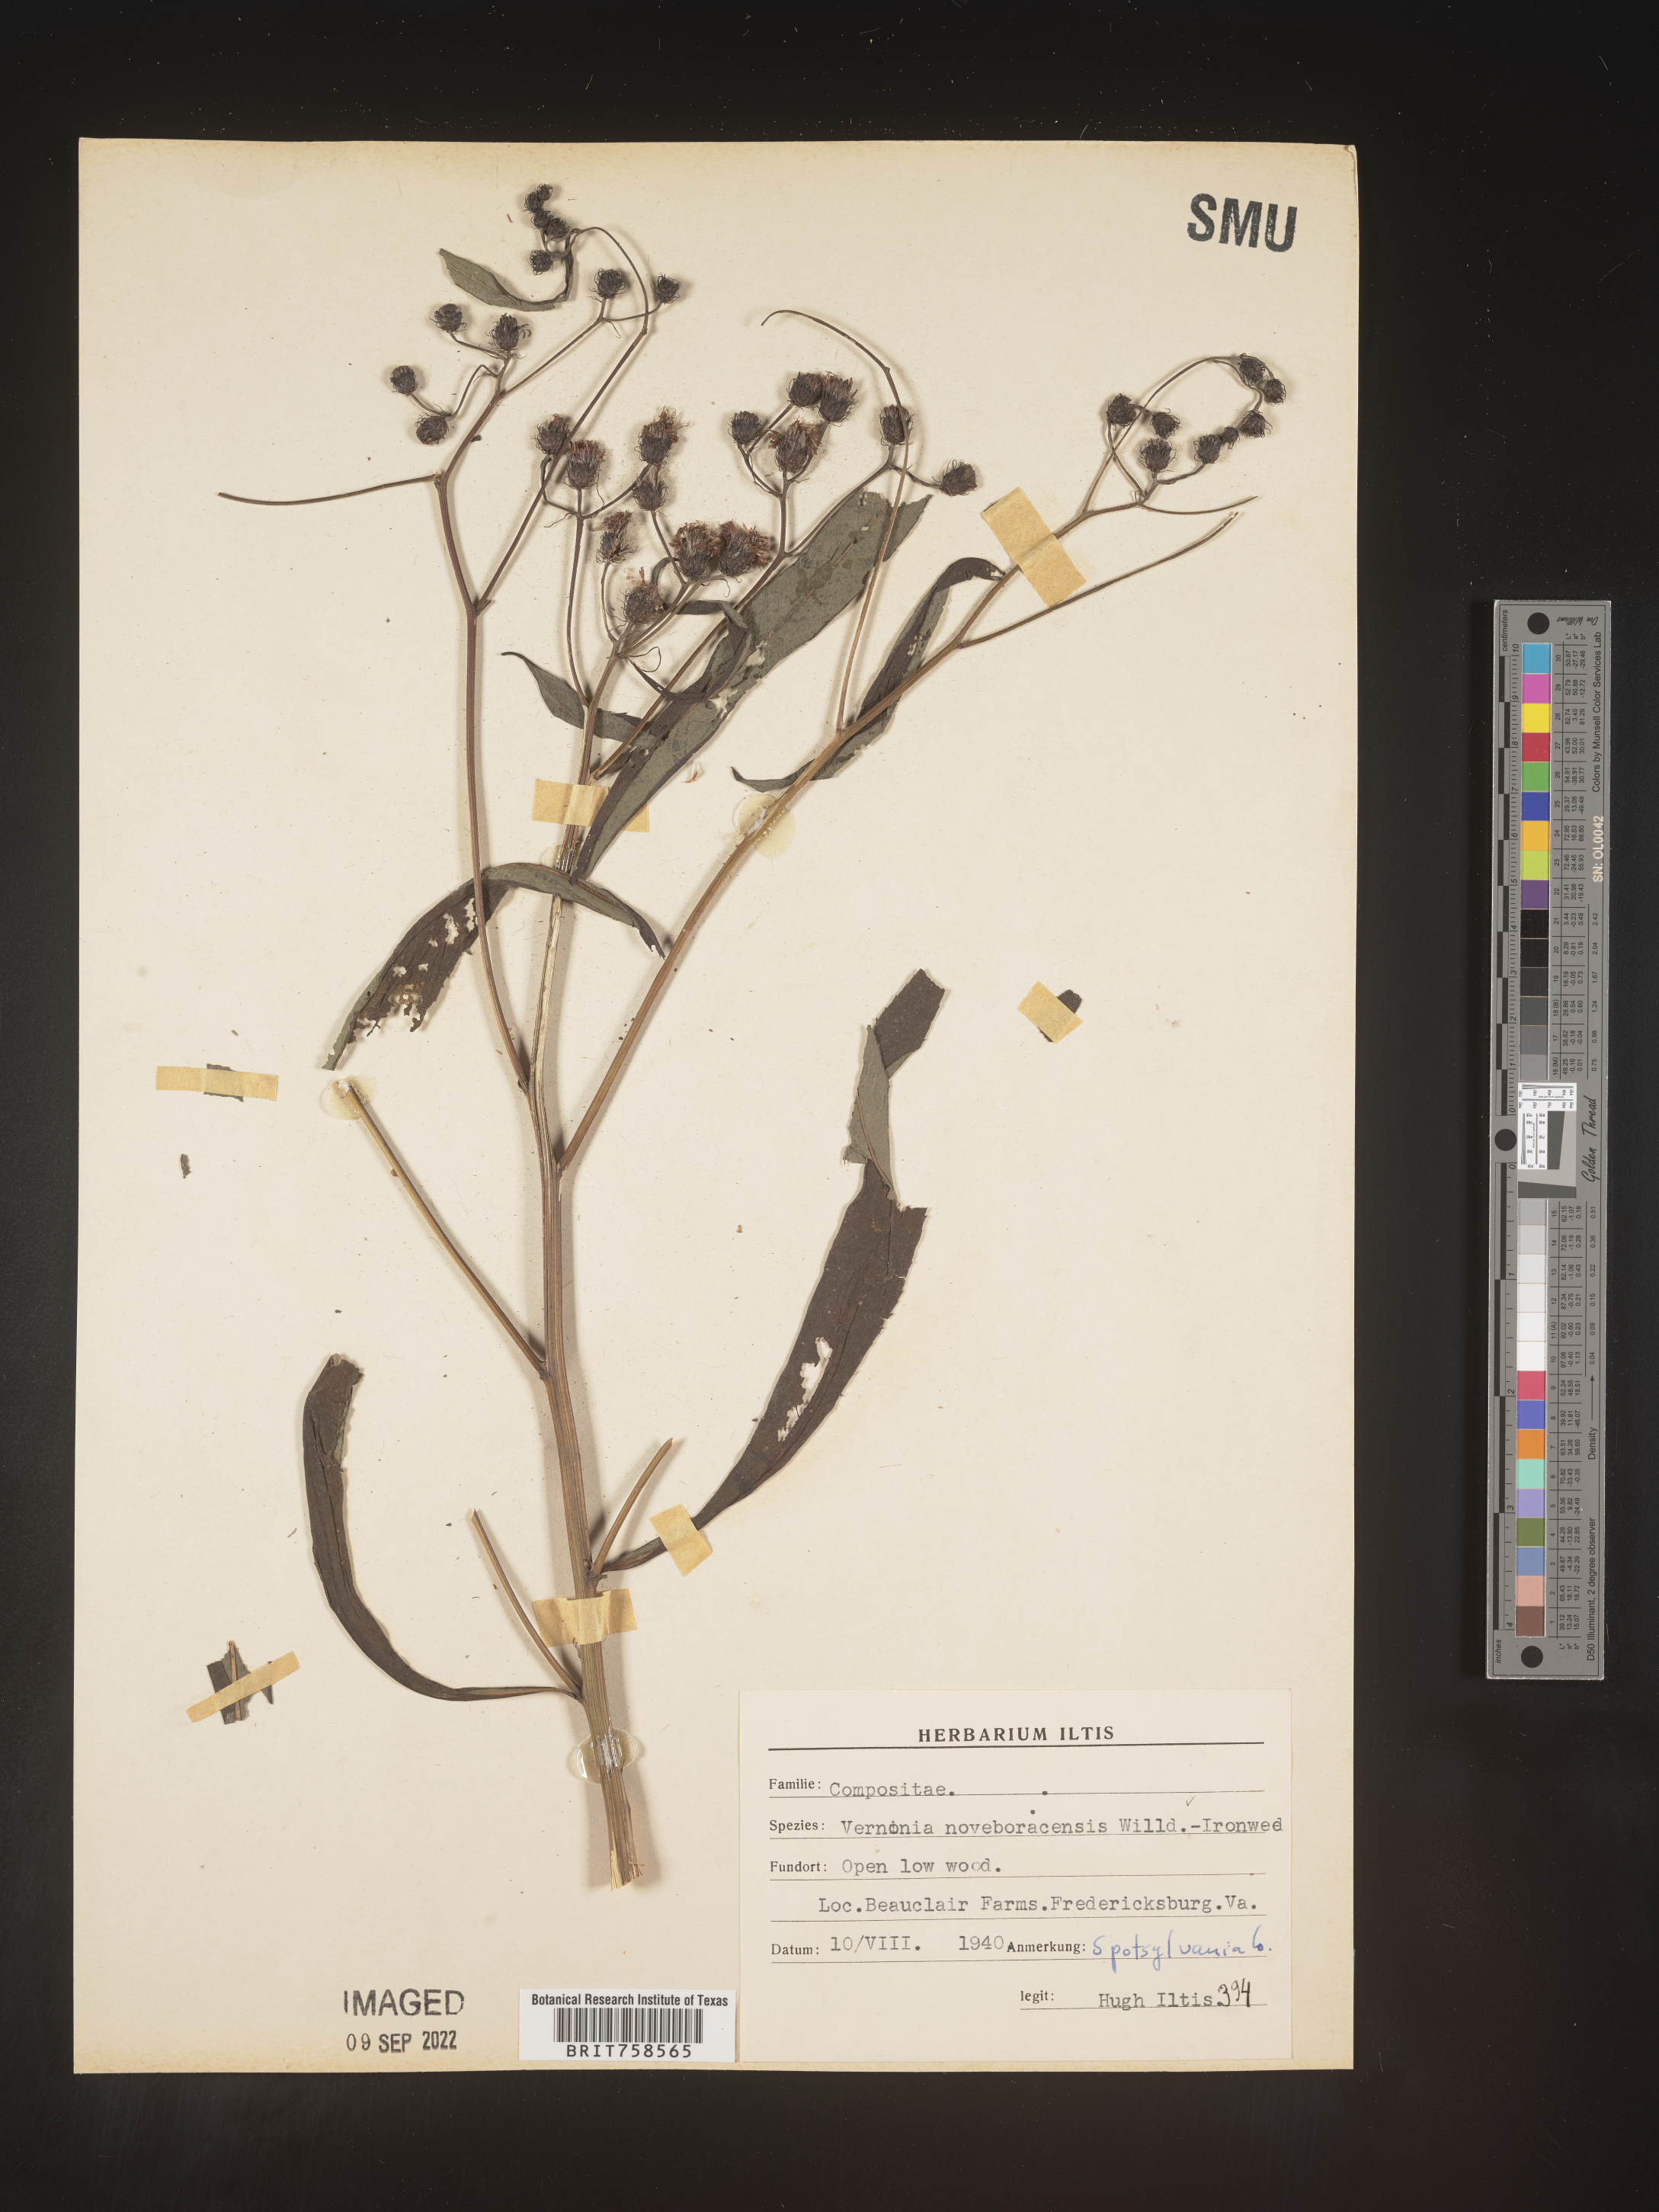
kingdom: Plantae
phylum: Tracheophyta
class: Magnoliopsida
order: Asterales
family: Asteraceae
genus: Vernonia
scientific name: Vernonia noveboracensis
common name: New york ironweed
